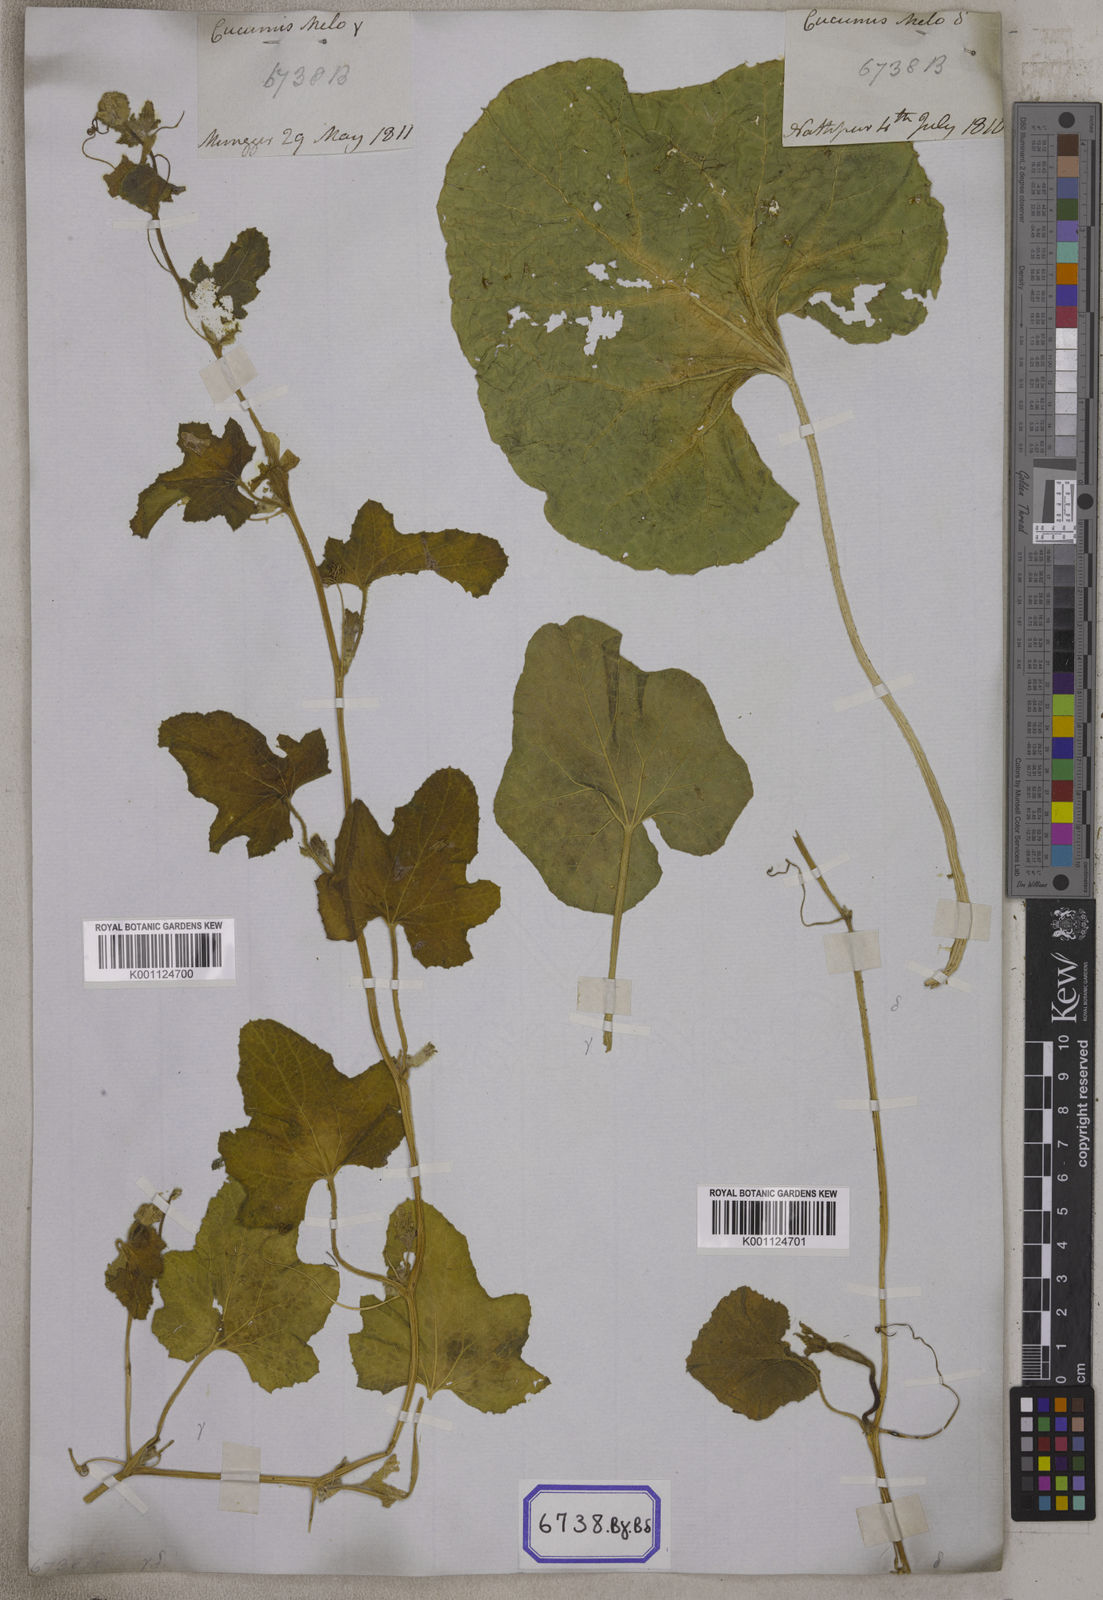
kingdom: Plantae
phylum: Tracheophyta
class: Magnoliopsida
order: Cucurbitales
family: Cucurbitaceae
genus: Cucumis
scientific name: Cucumis melo
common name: Melon
